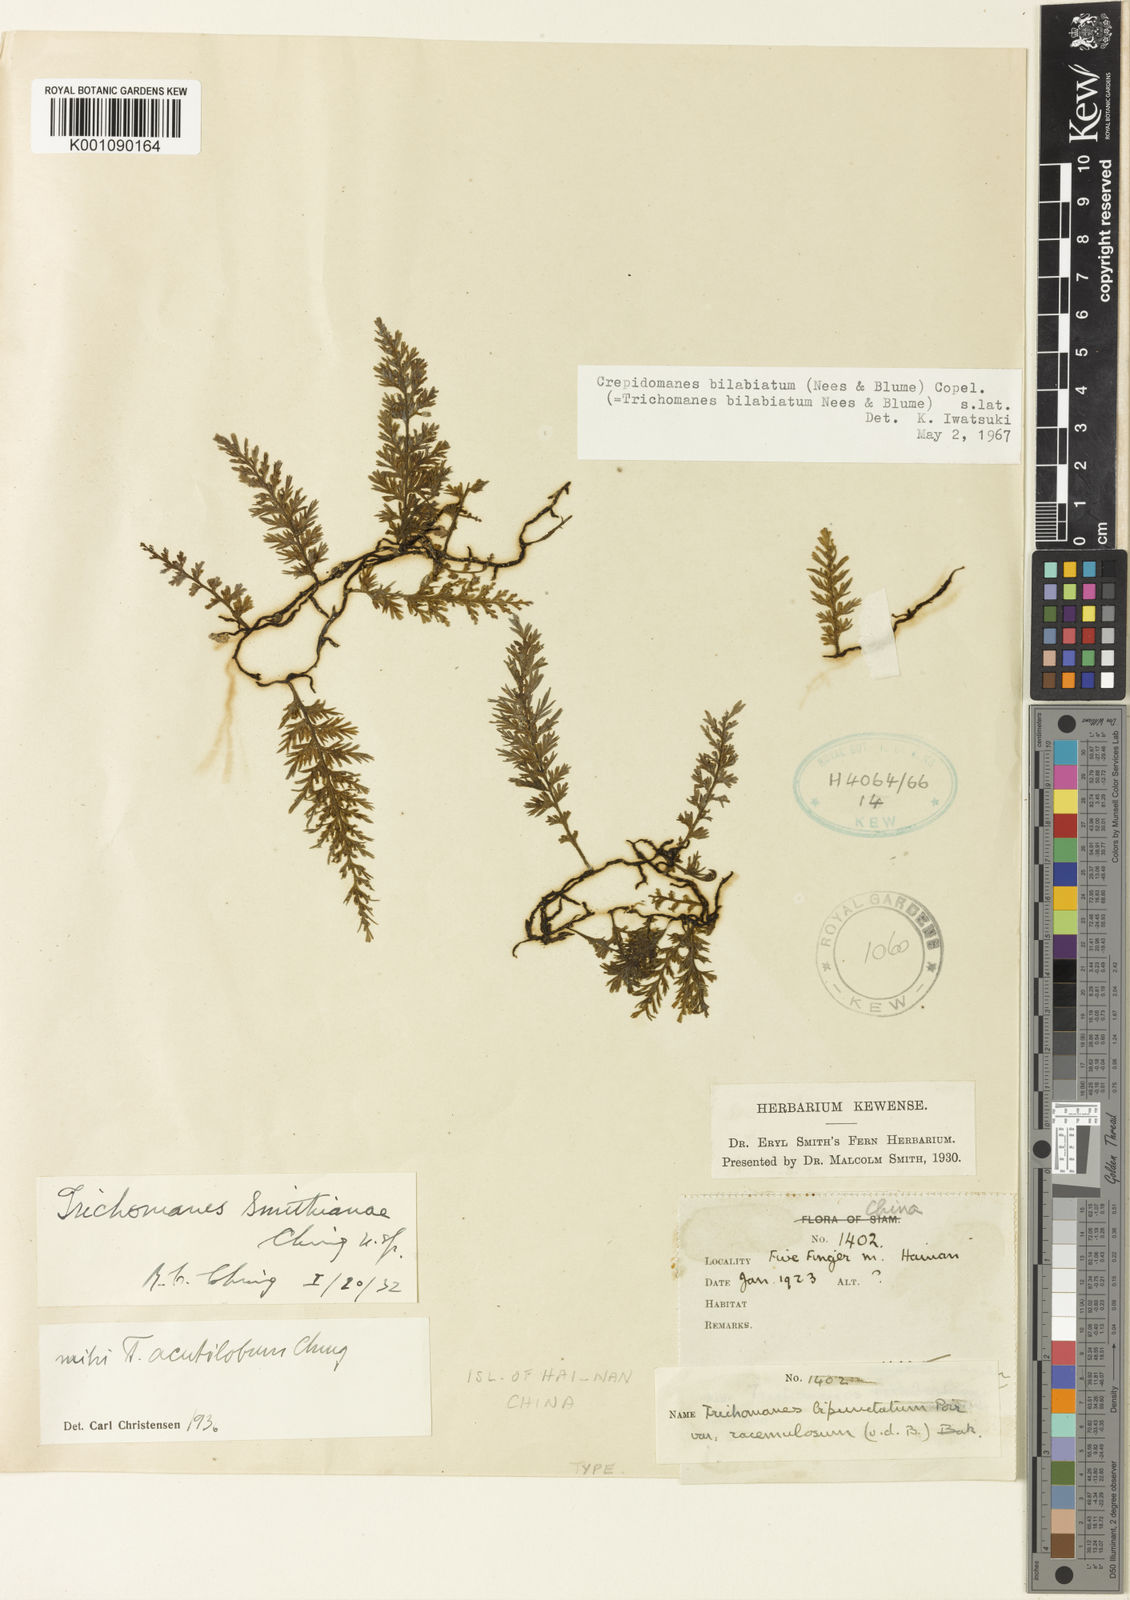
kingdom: Plantae
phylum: Tracheophyta
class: Polypodiopsida
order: Hymenophyllales
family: Hymenophyllaceae
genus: Crepidomanes
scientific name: Crepidomanes bipunctatum
